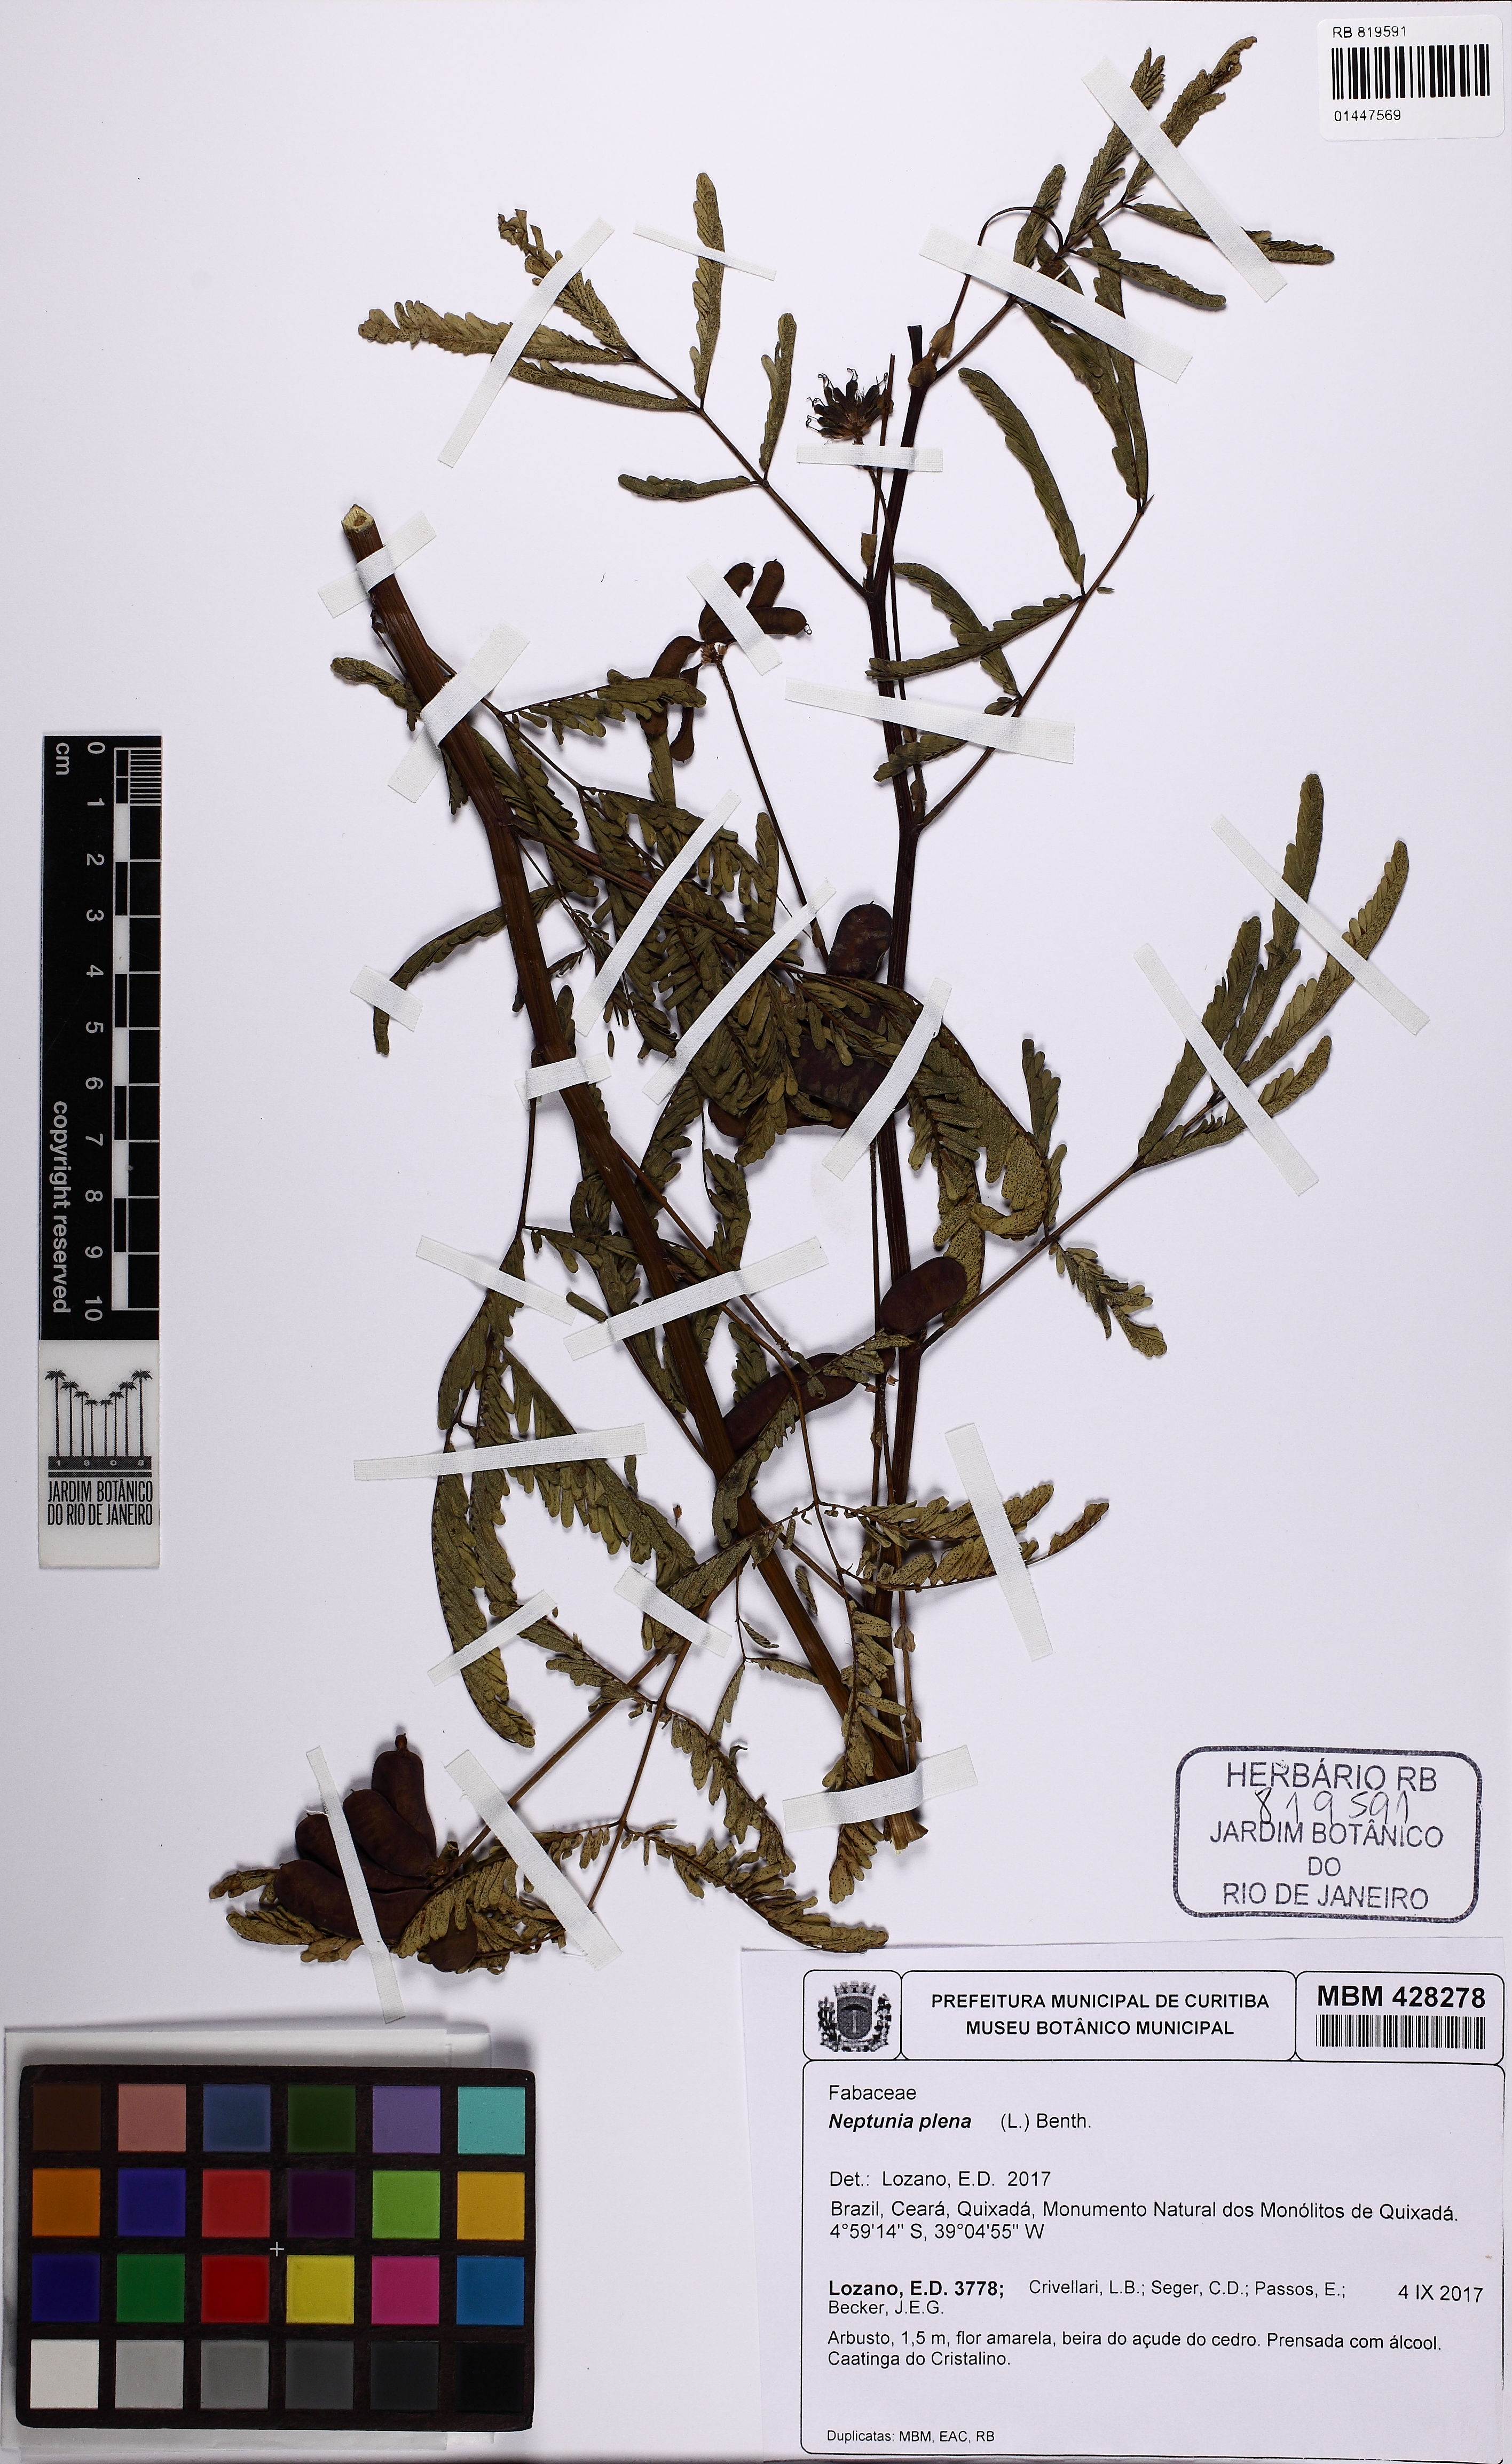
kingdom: Plantae
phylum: Tracheophyta
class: Magnoliopsida
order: Fabales
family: Fabaceae
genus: Neptunia
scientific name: Neptunia plena
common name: Dead and awake
